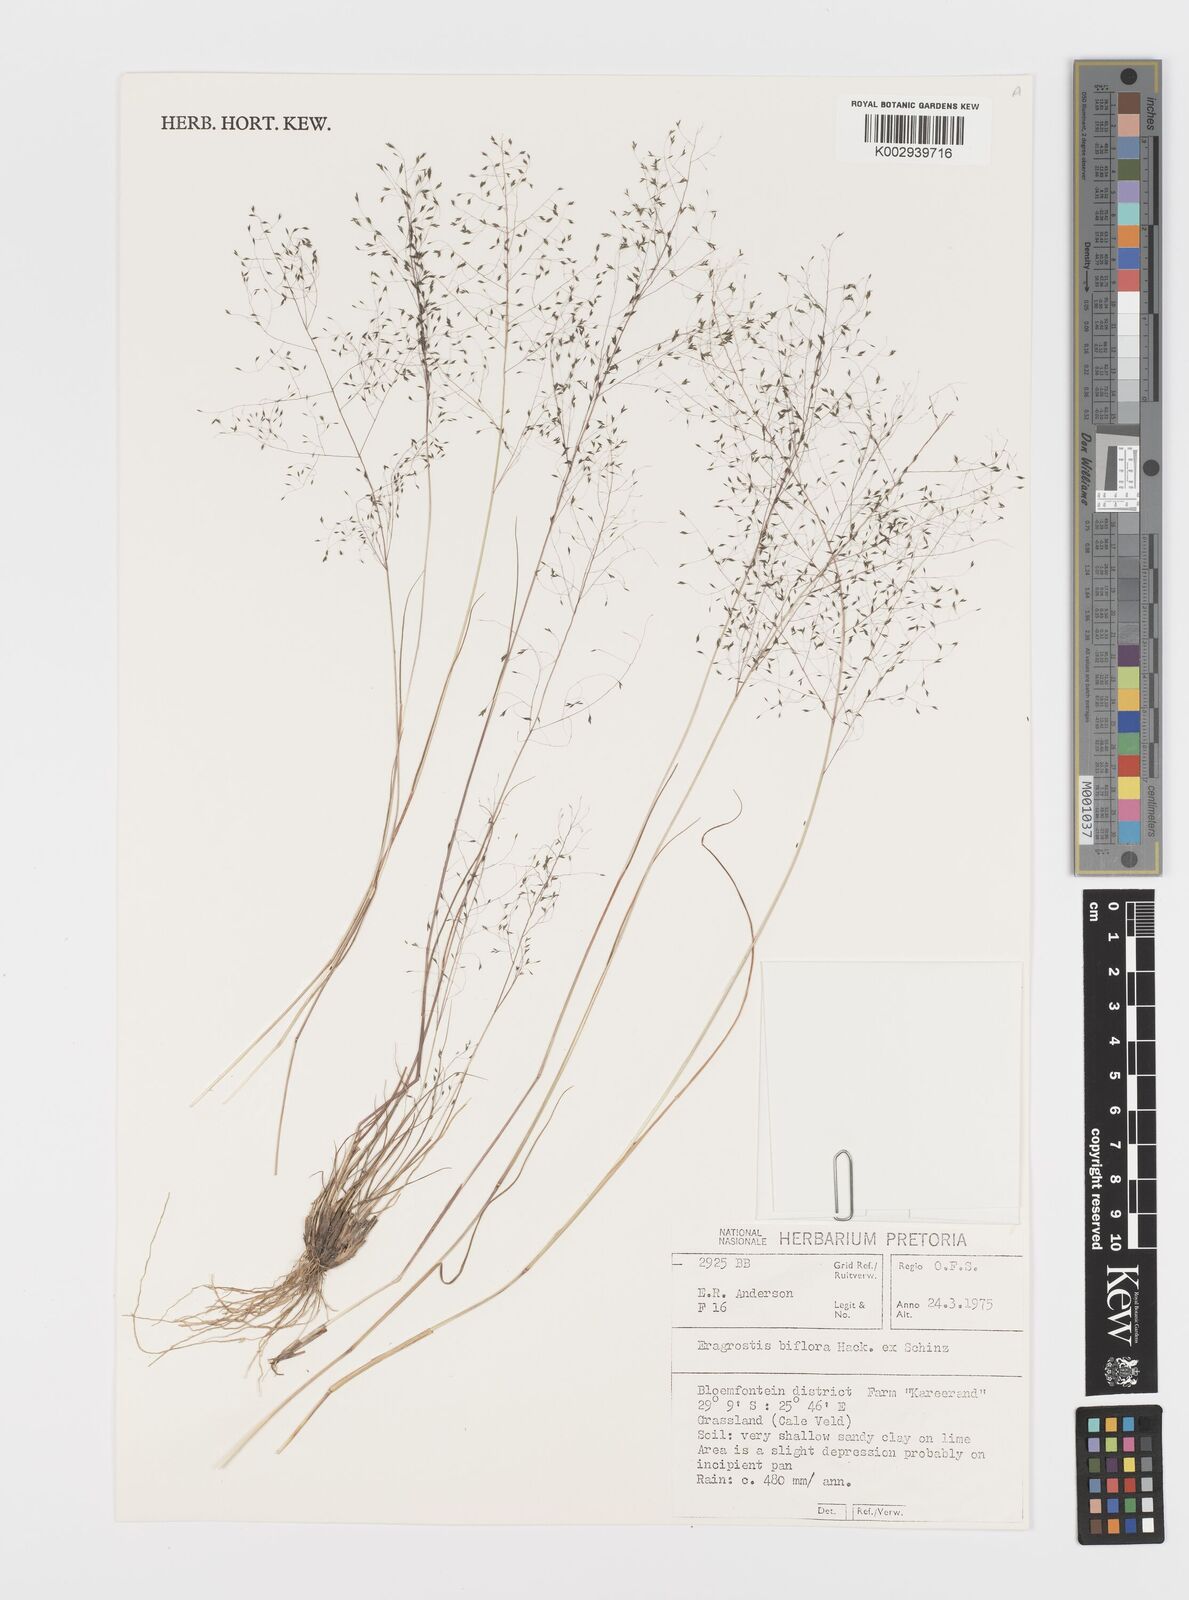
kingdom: Plantae
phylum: Tracheophyta
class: Liliopsida
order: Poales
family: Poaceae
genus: Eragrostis
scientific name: Eragrostis biflora
